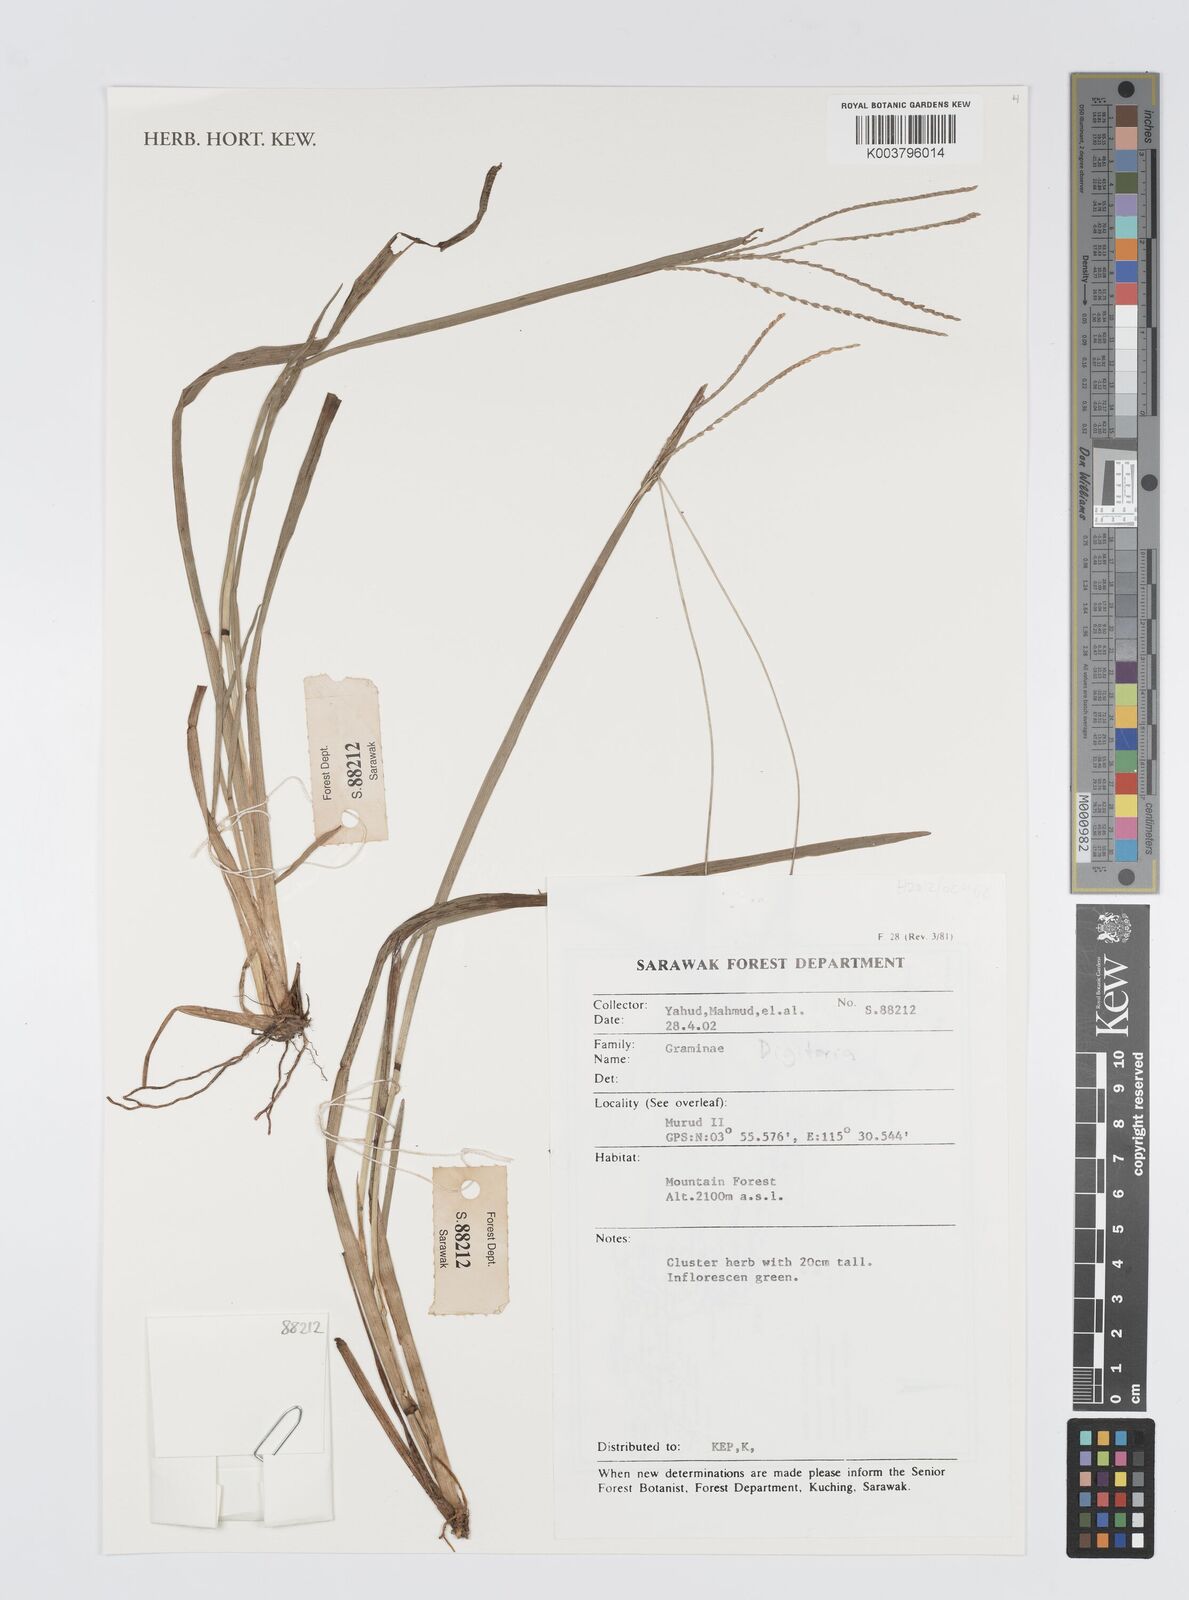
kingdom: Plantae
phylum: Tracheophyta
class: Liliopsida
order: Poales
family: Poaceae
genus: Digitaria
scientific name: Digitaria spec
